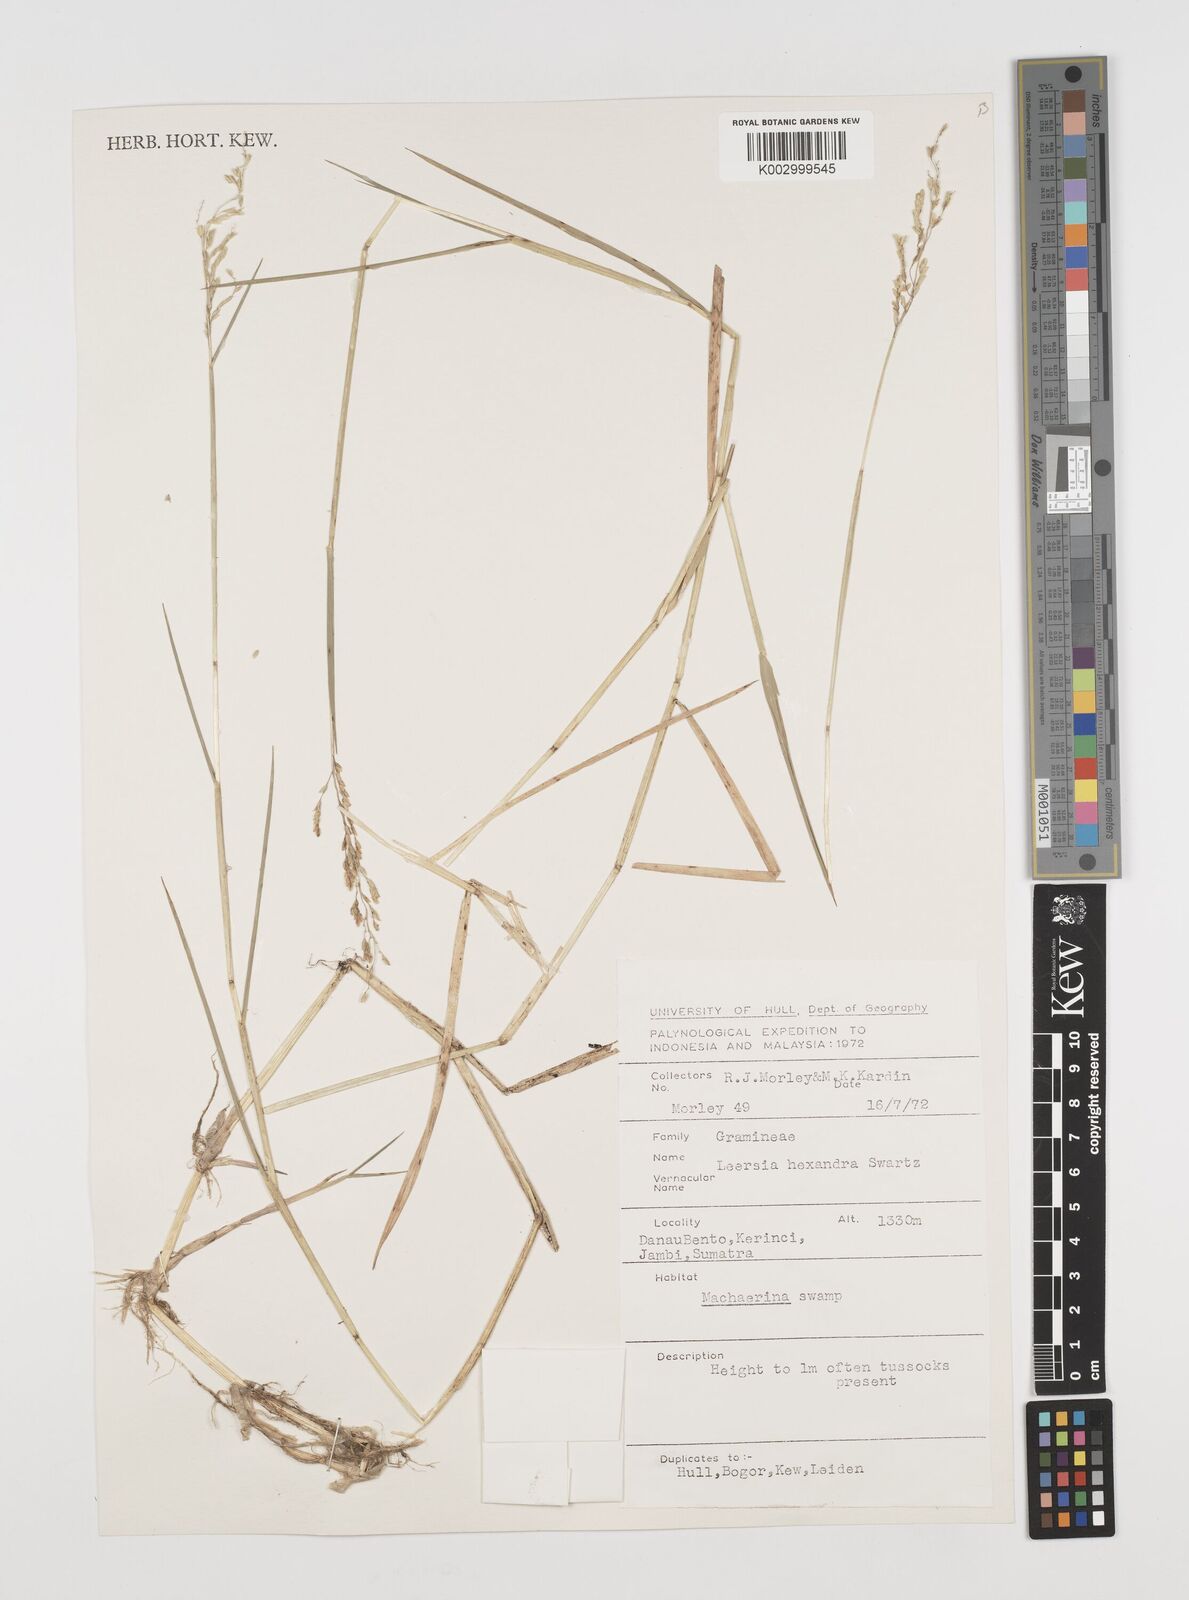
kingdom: Plantae
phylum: Tracheophyta
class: Liliopsida
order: Poales
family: Poaceae
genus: Leersia
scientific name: Leersia hexandra
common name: Southern cut grass
